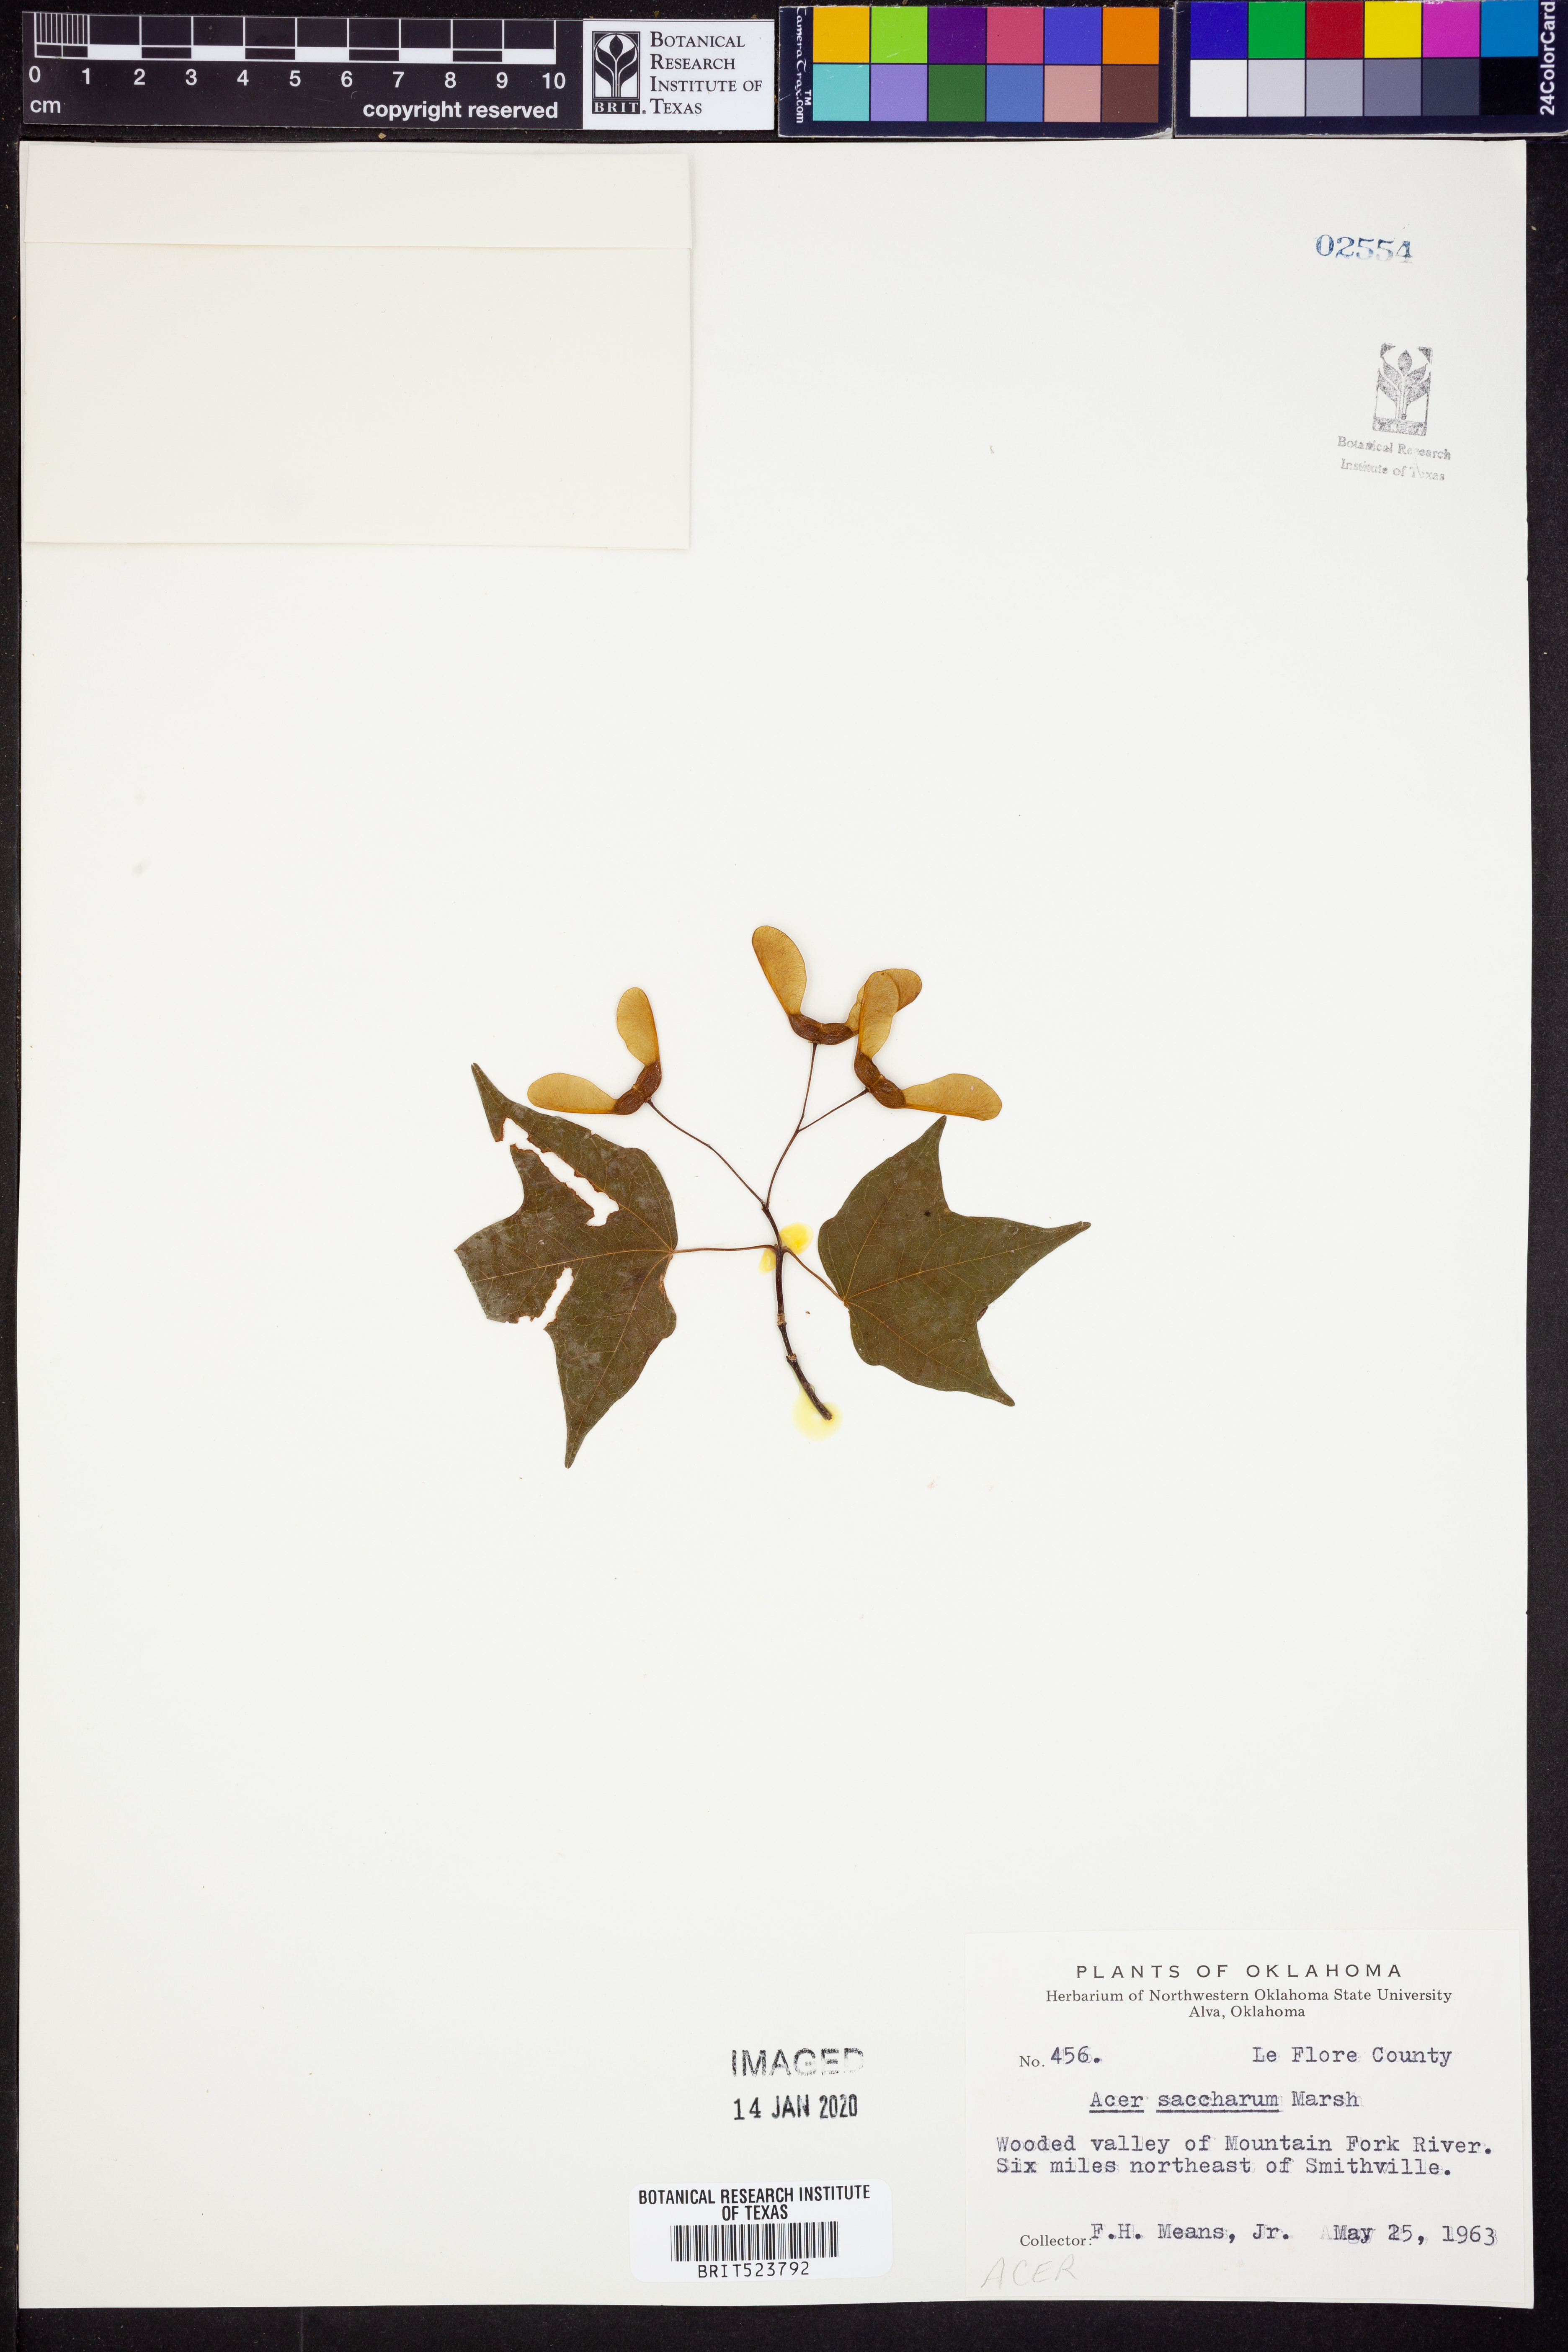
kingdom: Plantae
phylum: Tracheophyta
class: Magnoliopsida
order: Sapindales
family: Sapindaceae
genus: Acer
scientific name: Acer saccharum
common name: Sugar maple
